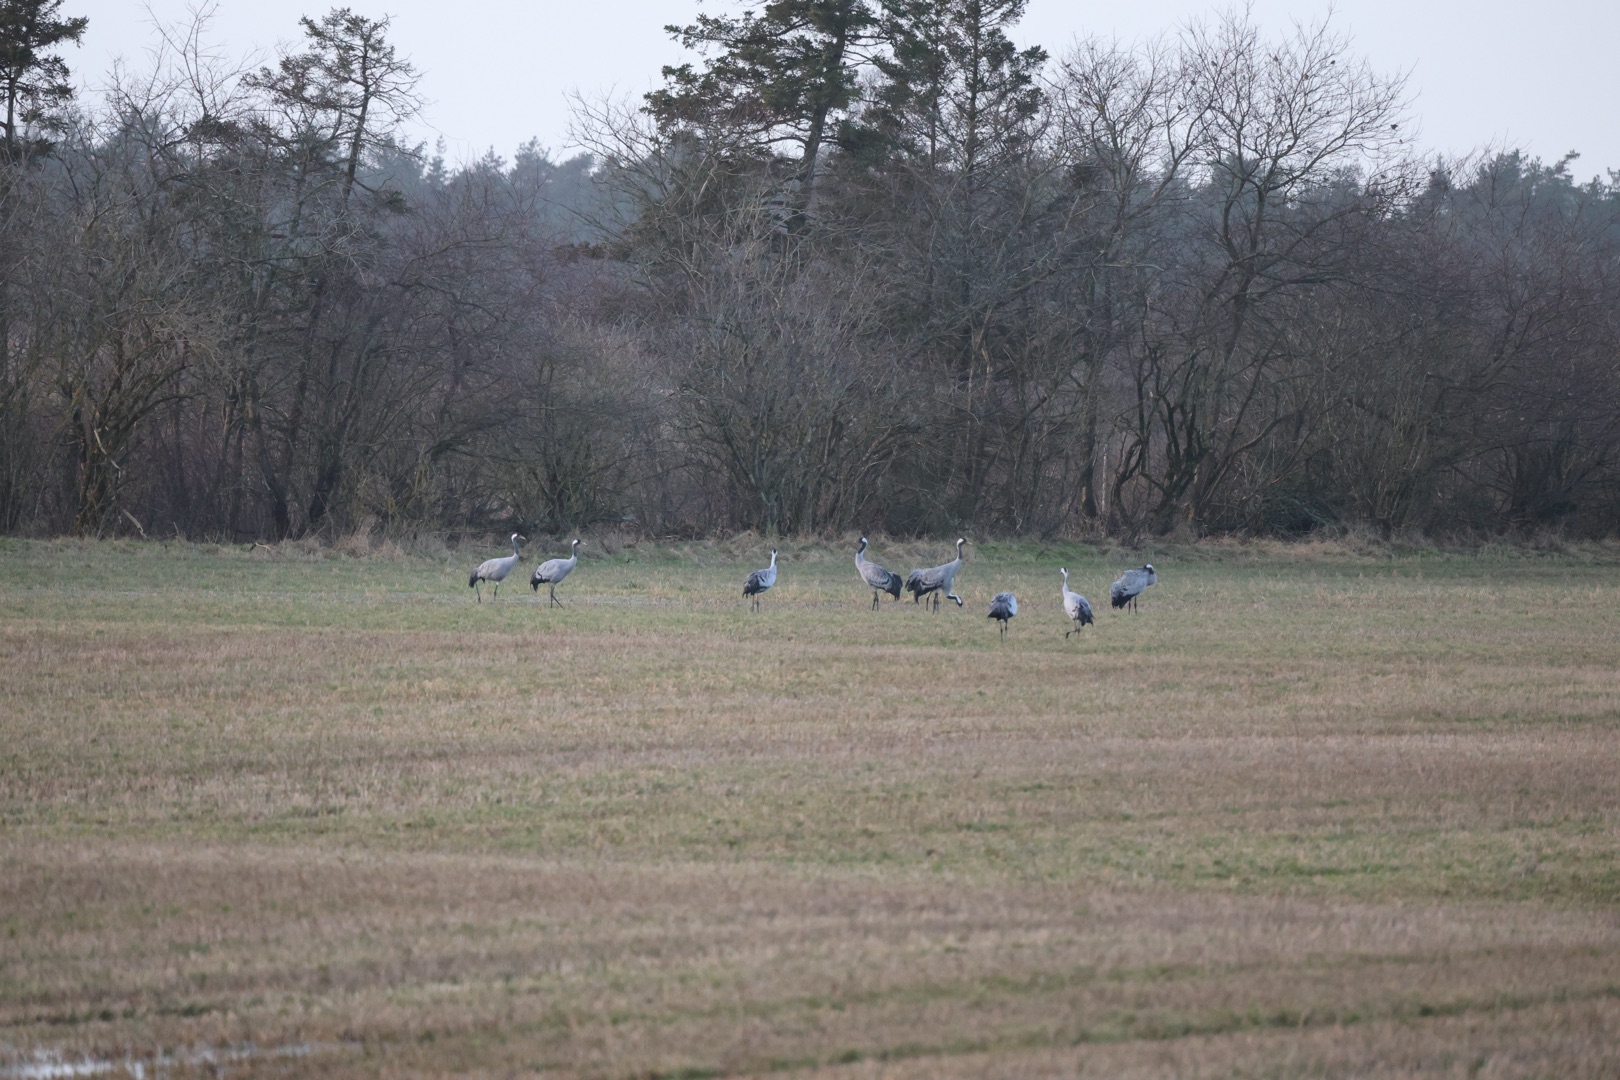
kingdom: Animalia
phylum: Chordata
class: Aves
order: Gruiformes
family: Gruidae
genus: Grus
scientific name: Grus grus
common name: Trane
